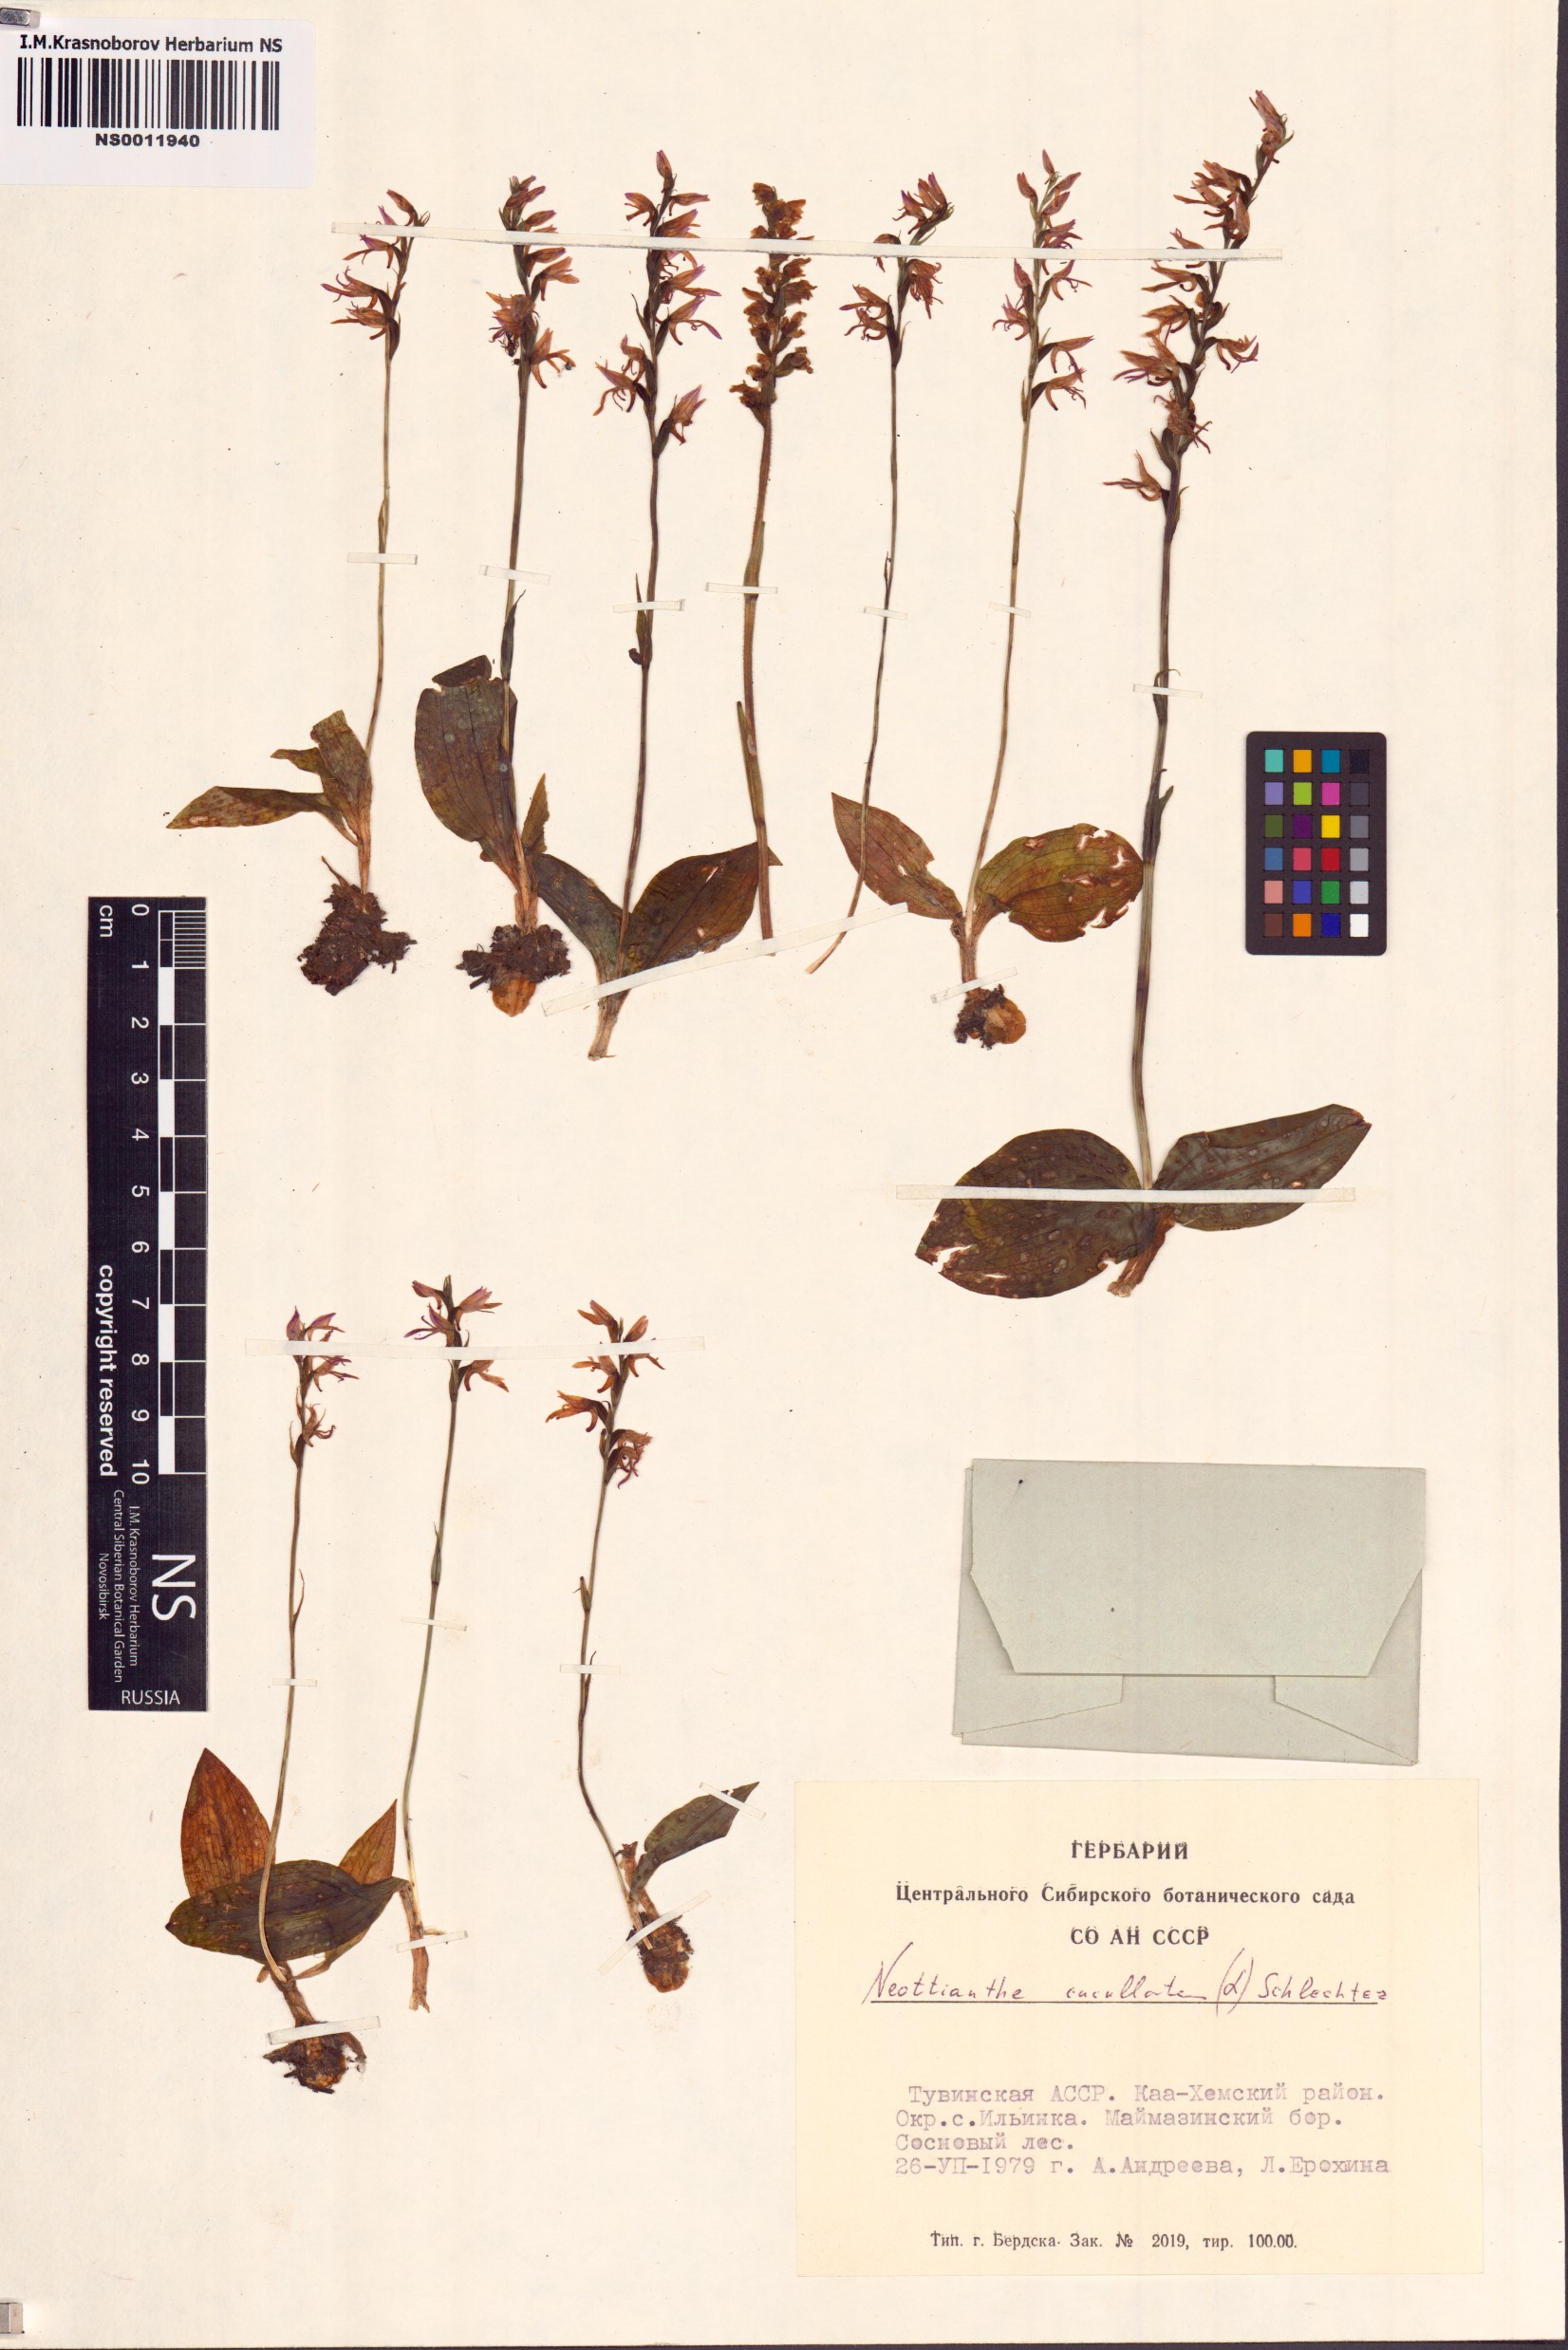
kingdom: Plantae
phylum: Tracheophyta
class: Liliopsida
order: Asparagales
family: Orchidaceae
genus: Hemipilia
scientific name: Hemipilia cucullata
